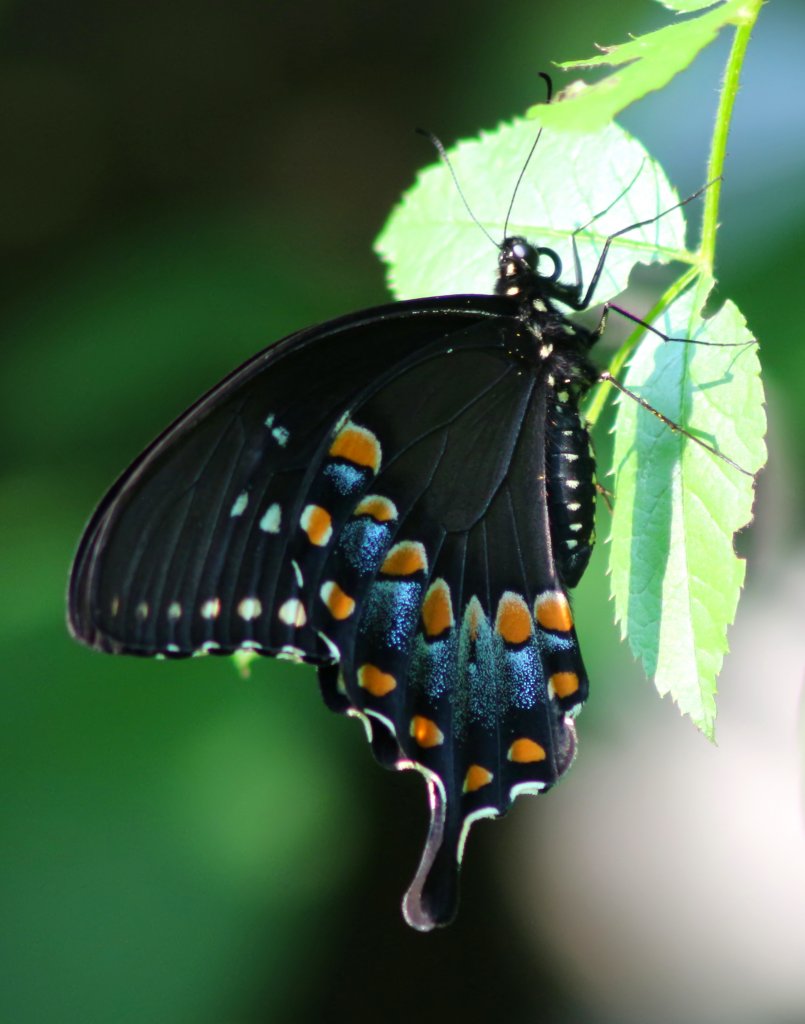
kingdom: Animalia
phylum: Arthropoda
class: Insecta
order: Lepidoptera
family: Papilionidae
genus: Pterourus
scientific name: Pterourus troilus
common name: Spicebush Swallowtail
